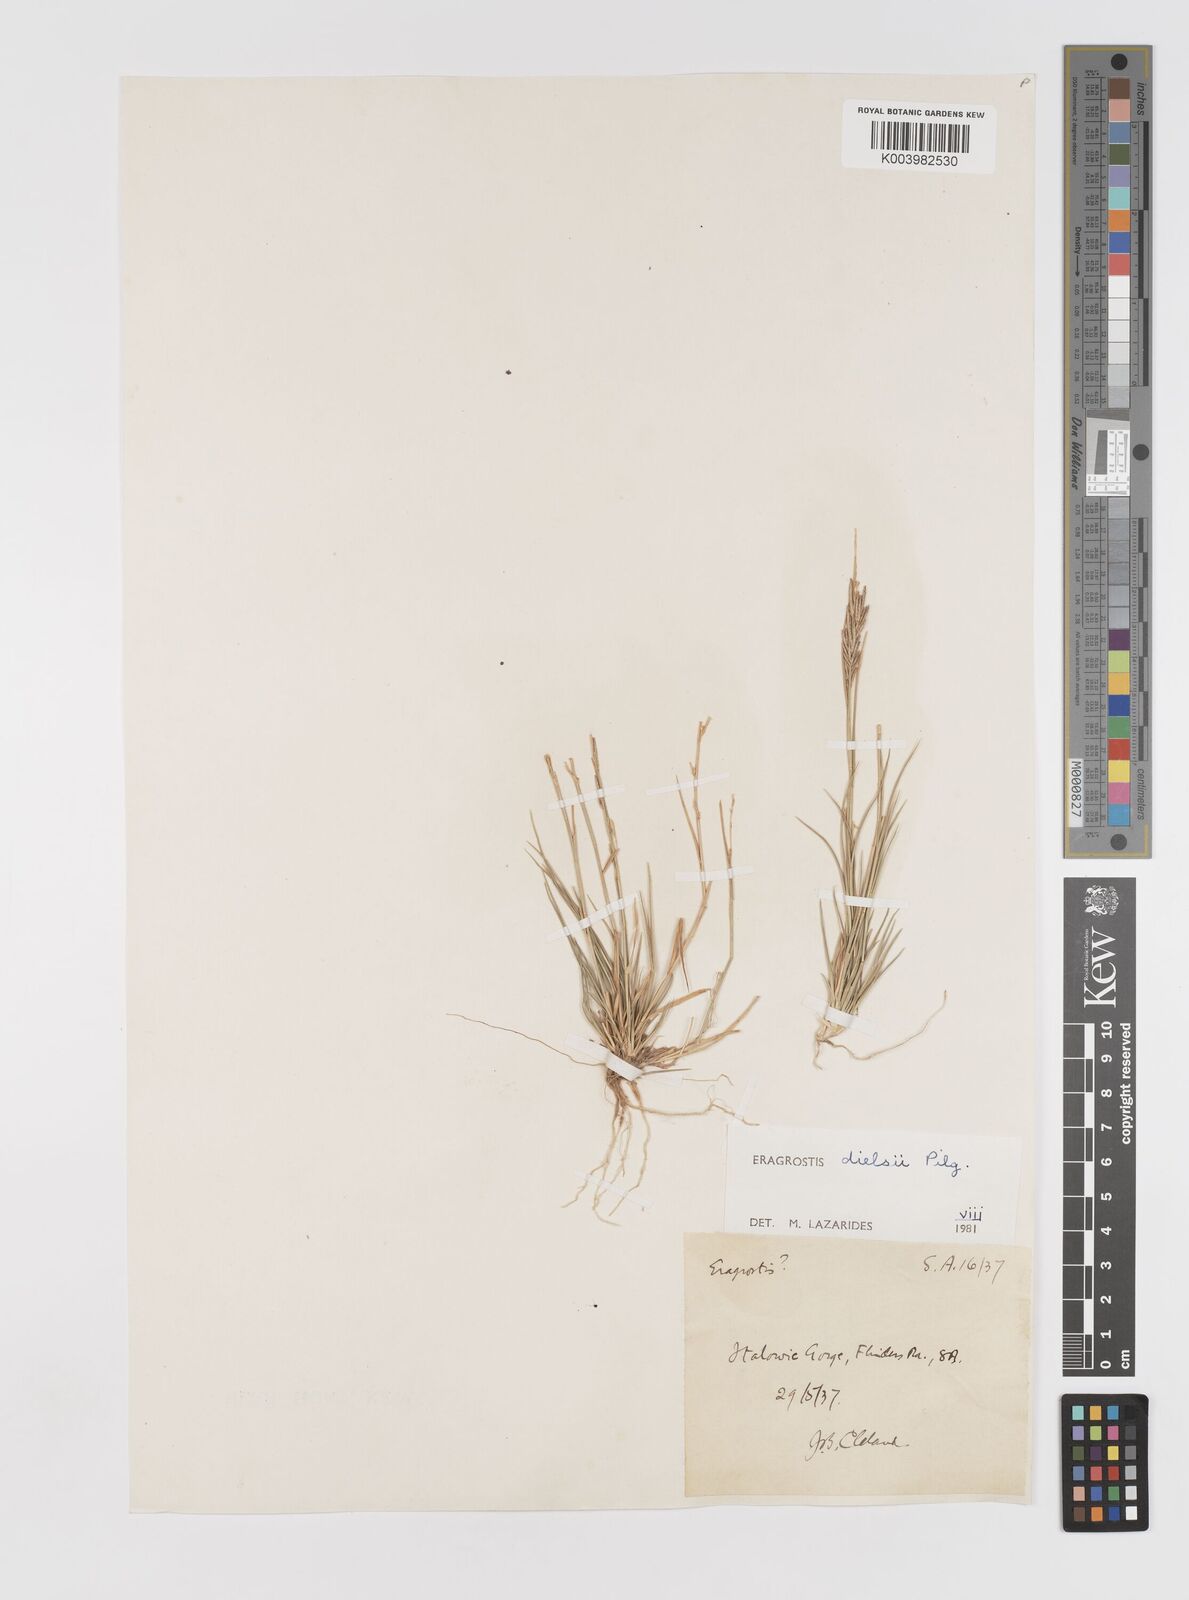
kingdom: Plantae
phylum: Tracheophyta
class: Liliopsida
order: Poales
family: Poaceae
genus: Eragrostis
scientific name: Eragrostis dielsii
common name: Lovegrass
